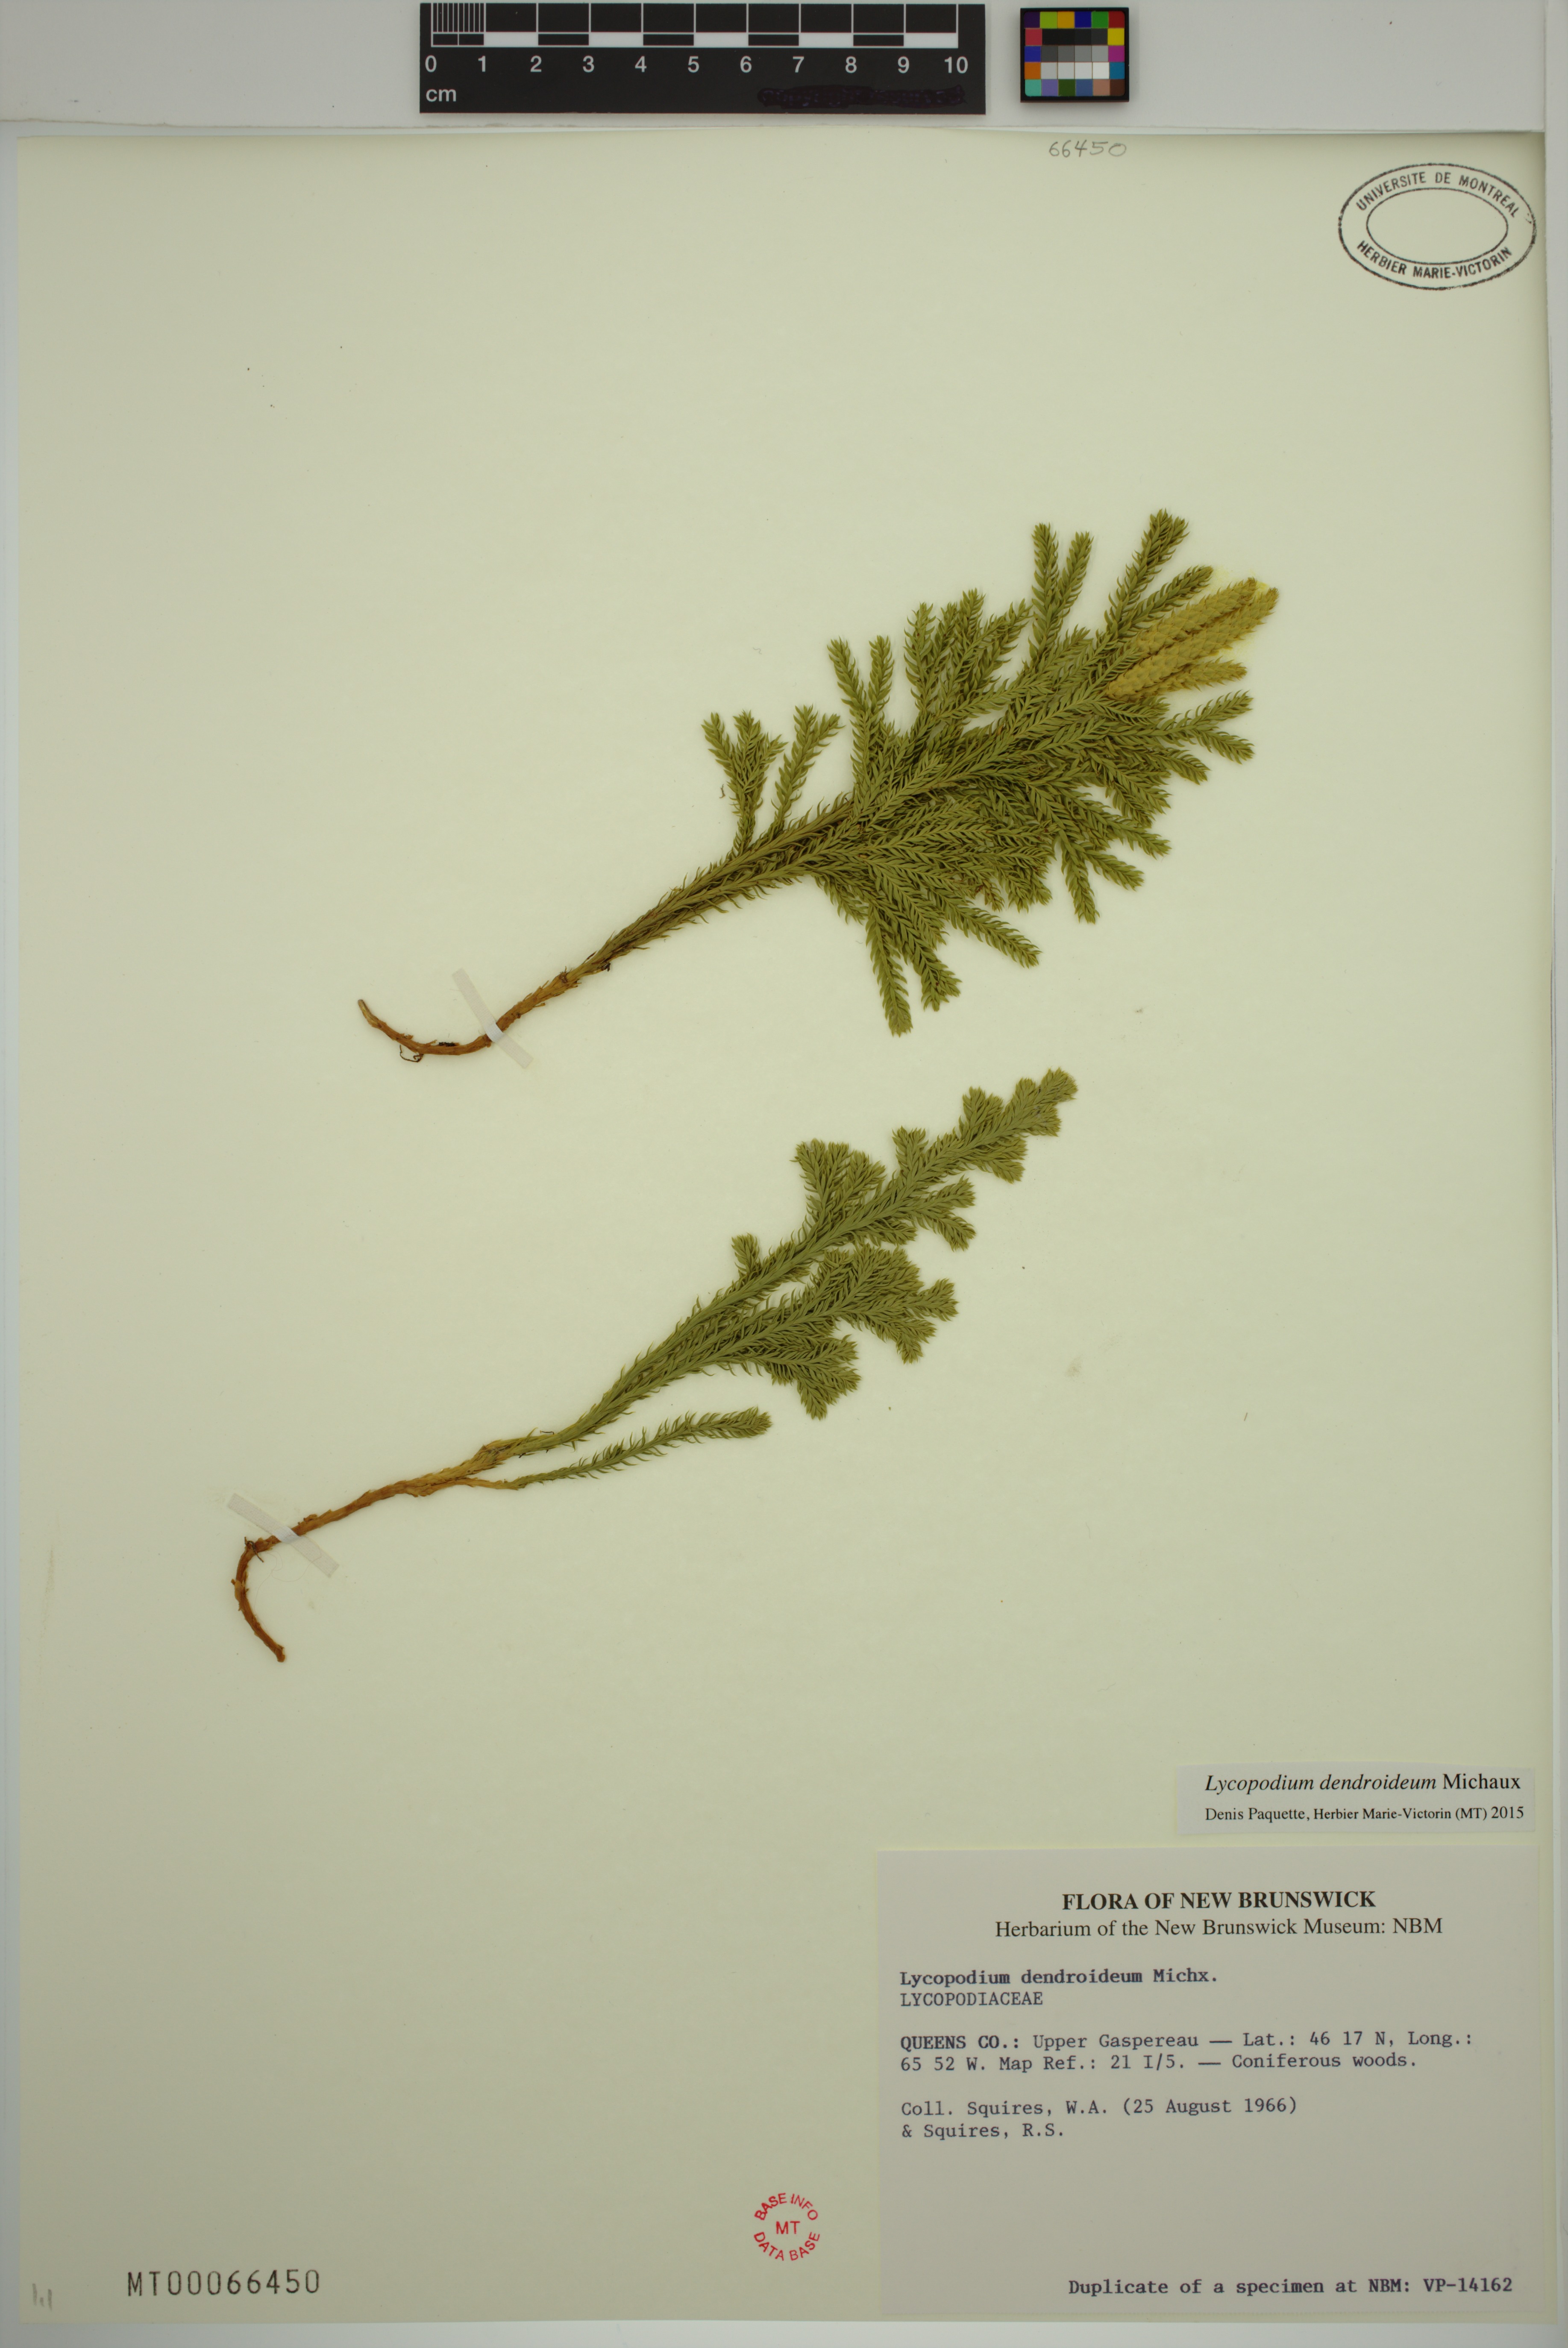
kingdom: Plantae
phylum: Tracheophyta
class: Lycopodiopsida
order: Lycopodiales
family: Lycopodiaceae
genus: Dendrolycopodium
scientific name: Dendrolycopodium dendroideum
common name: Northern tree-clubmoss
